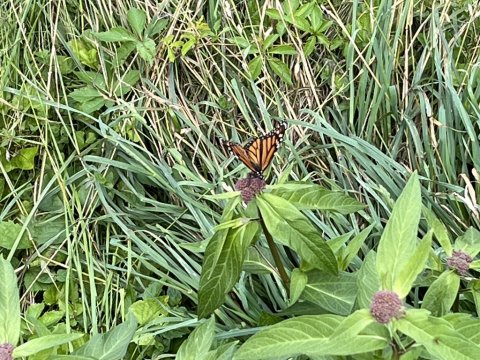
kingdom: Animalia
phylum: Arthropoda
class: Insecta
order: Lepidoptera
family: Nymphalidae
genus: Danaus
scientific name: Danaus plexippus
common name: Monarch
